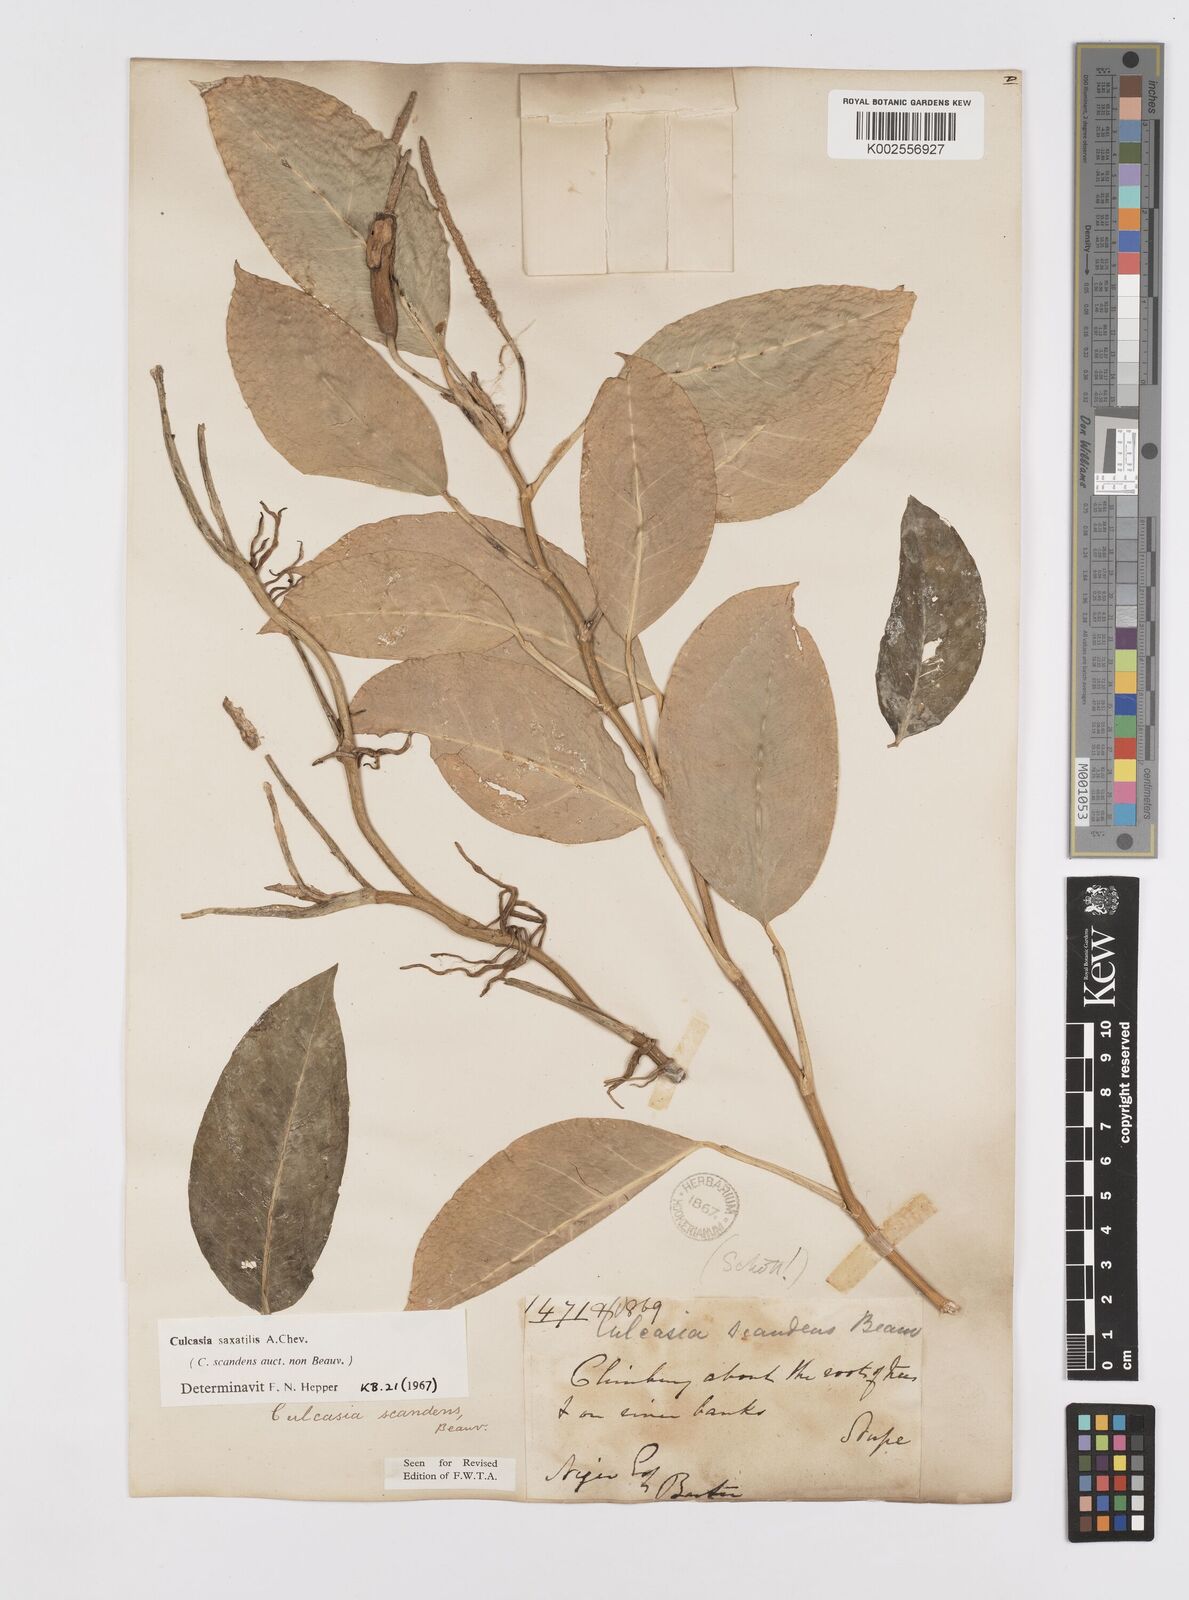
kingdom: Plantae
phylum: Tracheophyta
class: Liliopsida
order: Alismatales
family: Araceae
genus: Culcasia
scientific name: Culcasia scandens
